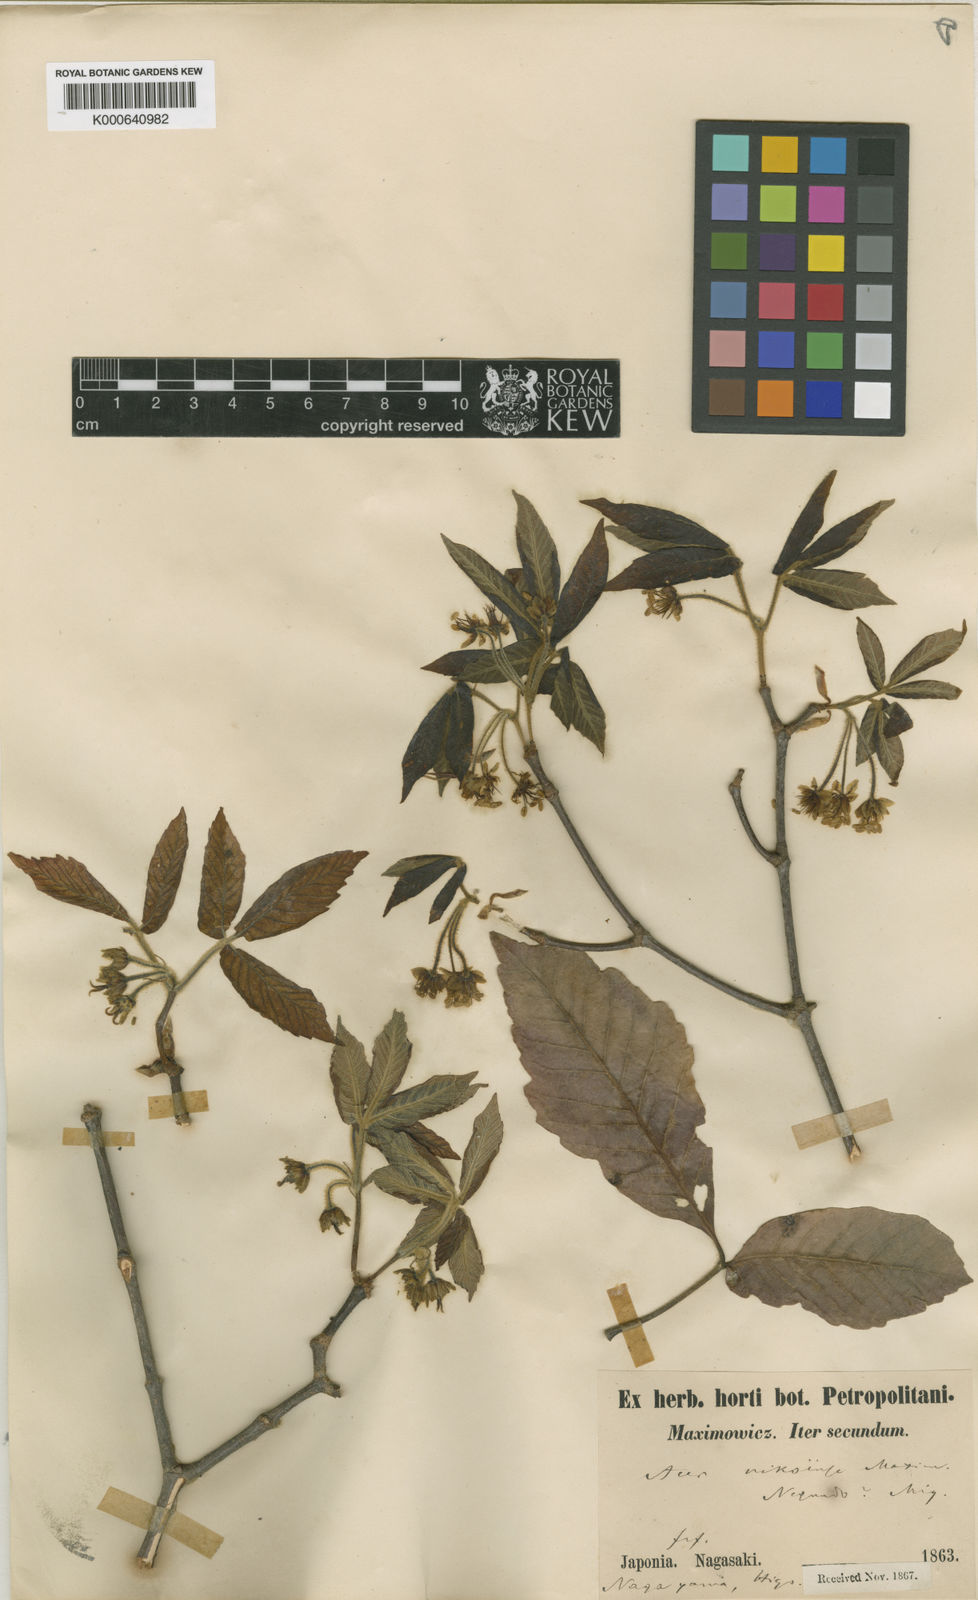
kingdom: Plantae
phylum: Tracheophyta
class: Magnoliopsida
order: Sapindales
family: Sapindaceae
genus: Acer
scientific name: Acer maximowiczianum
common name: Nikko maple
